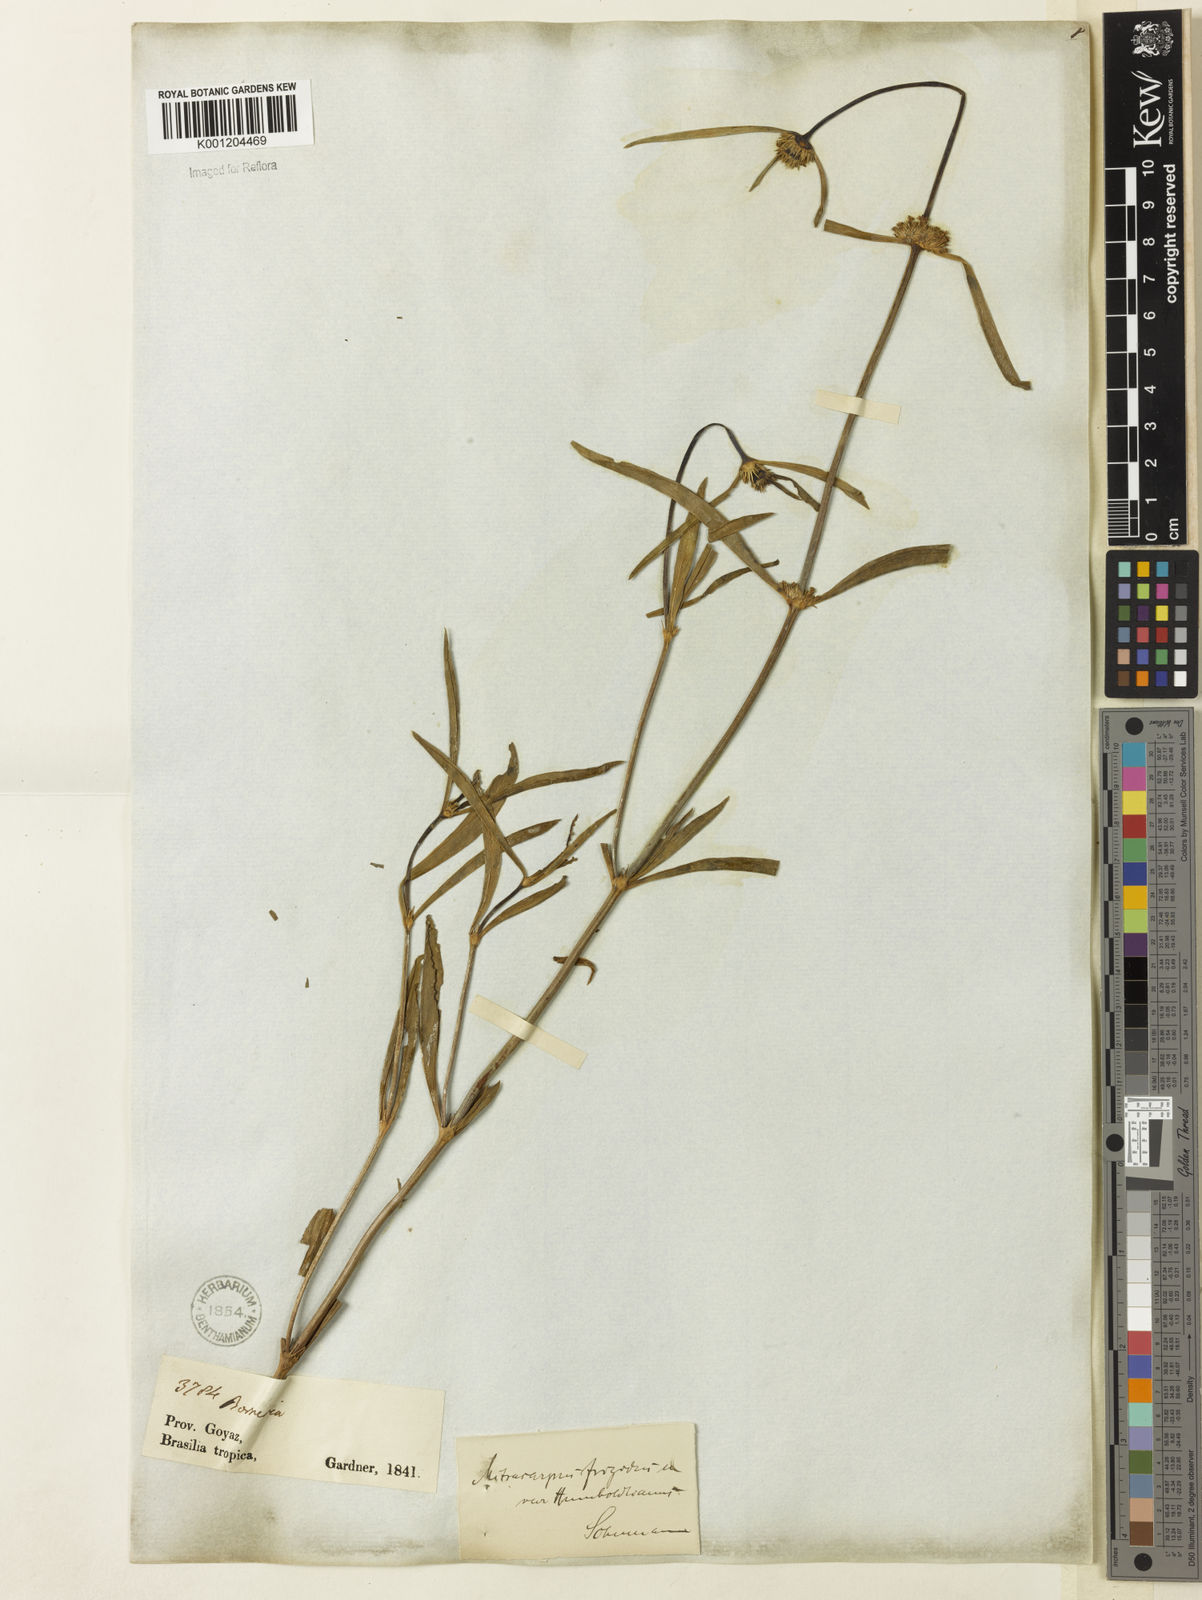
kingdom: Plantae
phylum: Tracheophyta
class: Magnoliopsida
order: Gentianales
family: Rubiaceae
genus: Mitracarpus
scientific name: Mitracarpus frigidus
